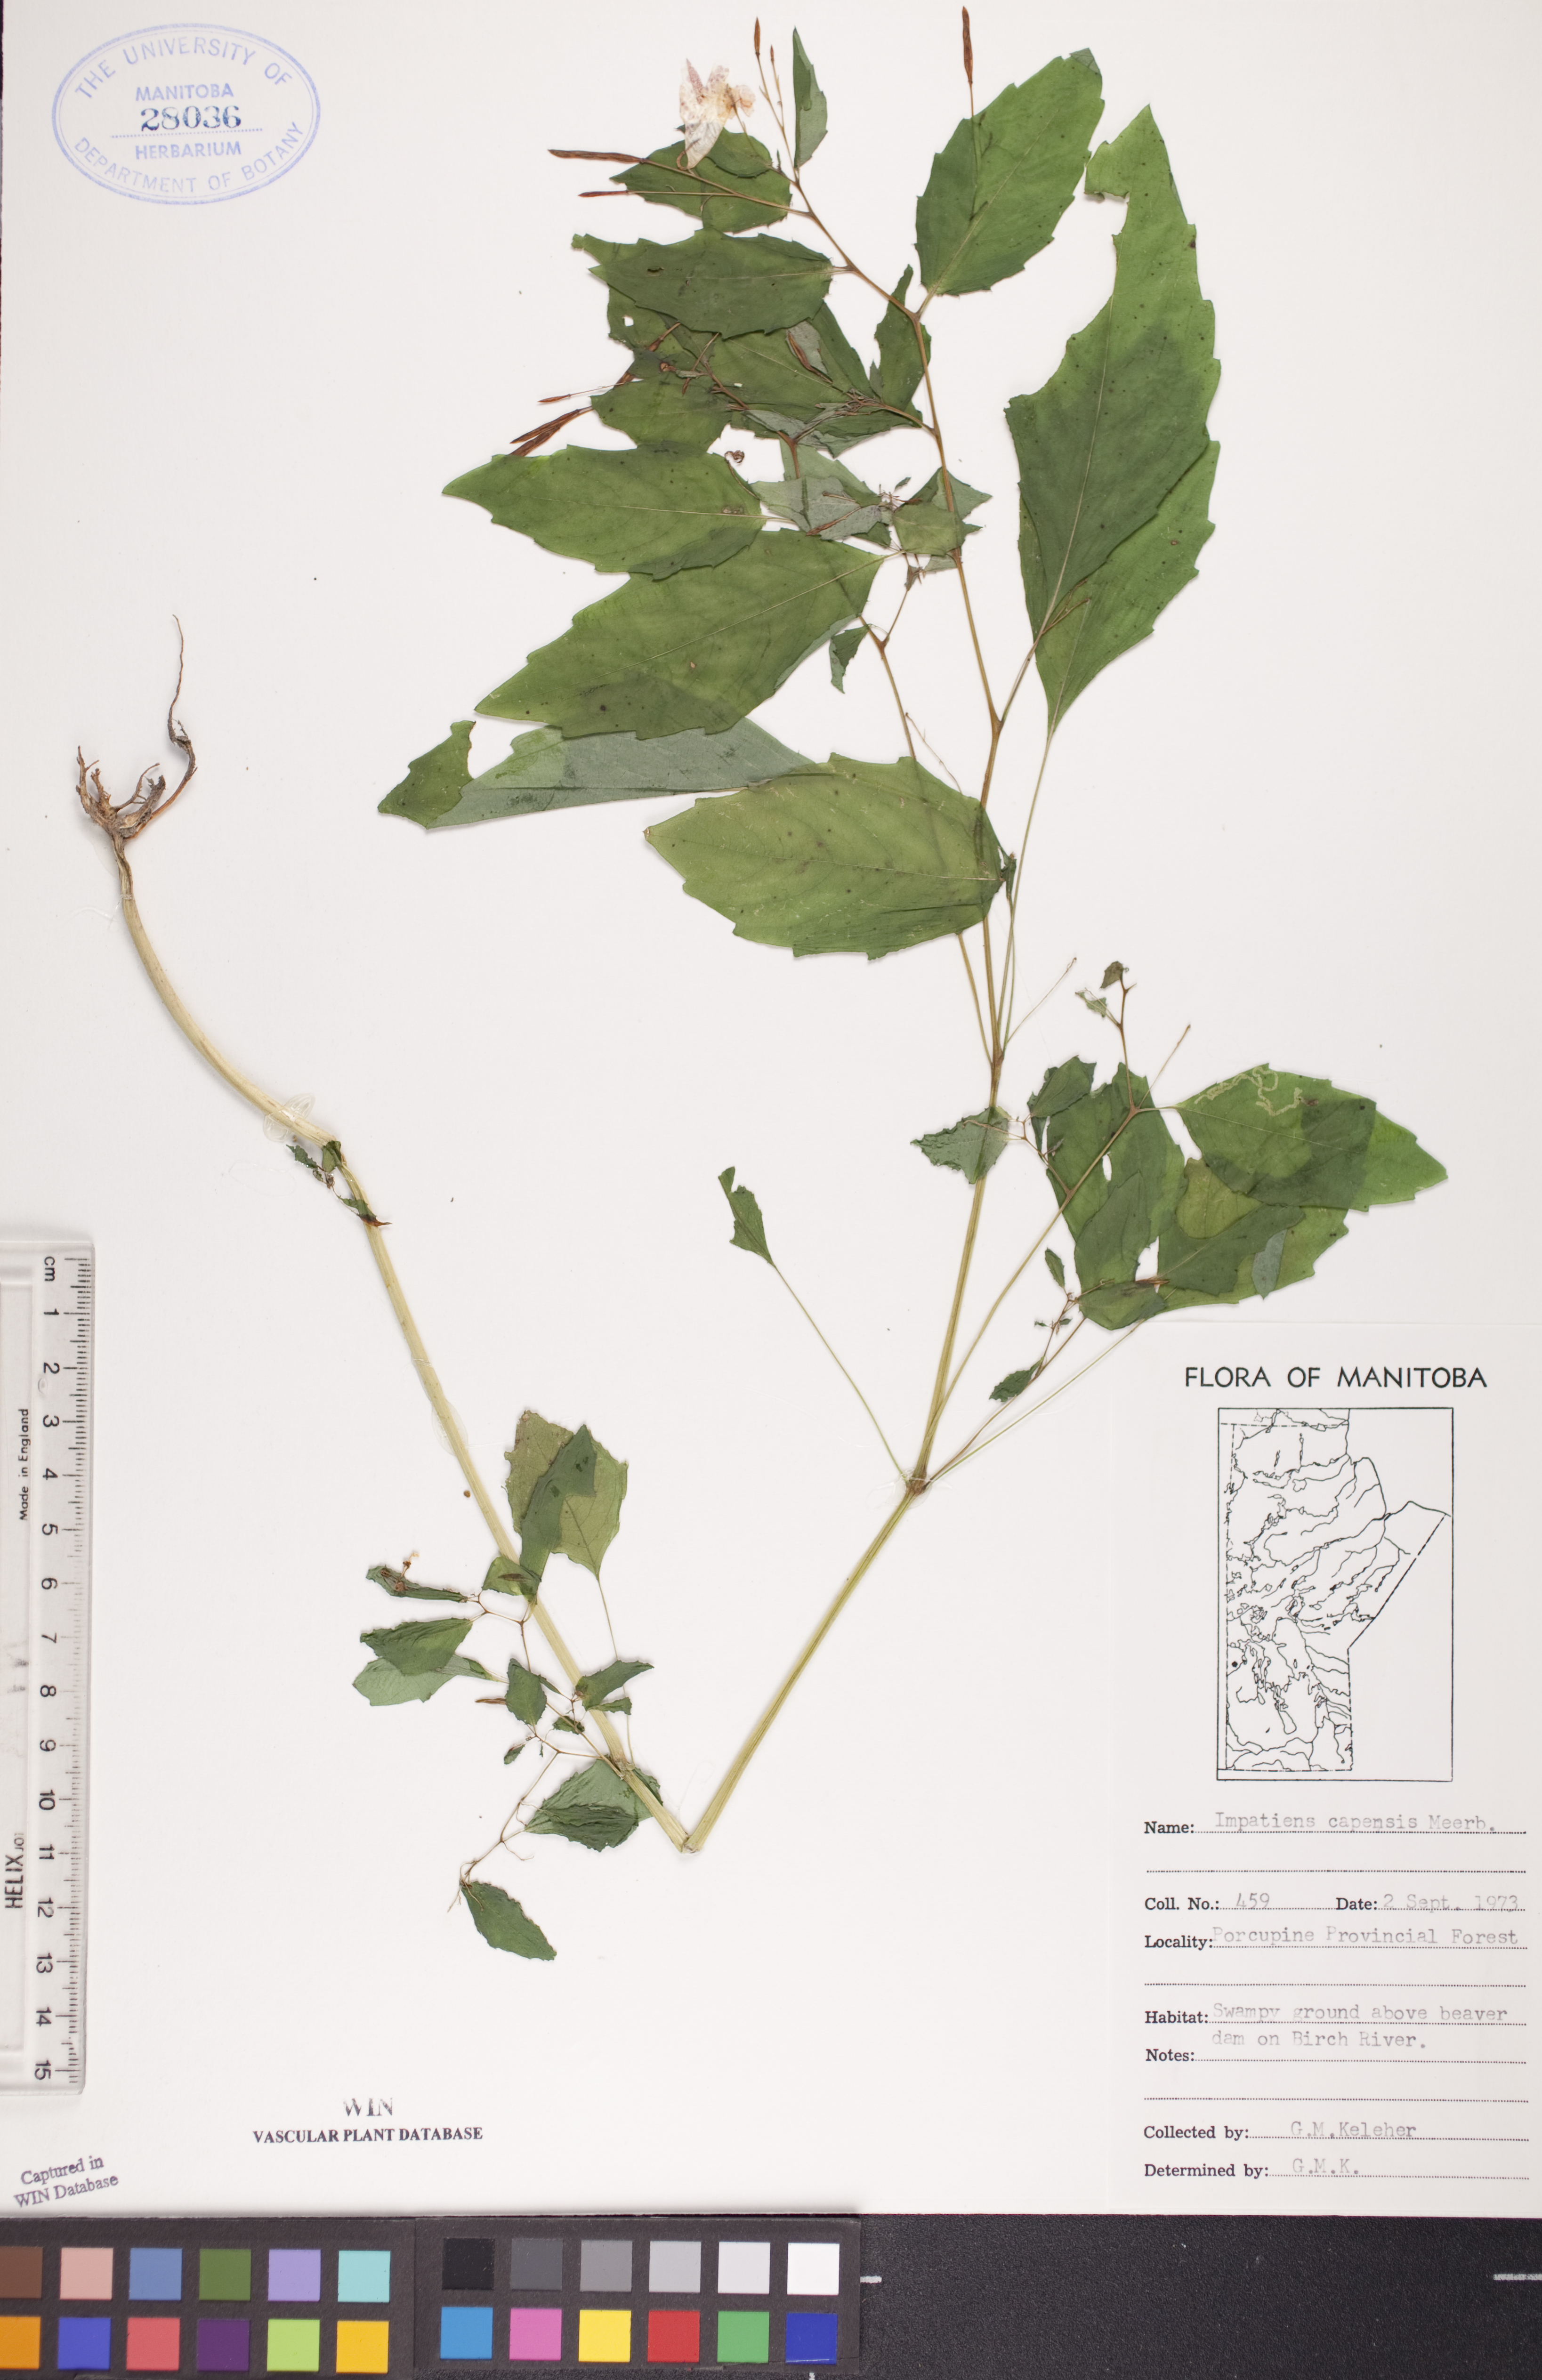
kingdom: Plantae
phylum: Tracheophyta
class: Magnoliopsida
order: Ericales
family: Balsaminaceae
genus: Impatiens
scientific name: Impatiens capensis
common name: Orange balsam
